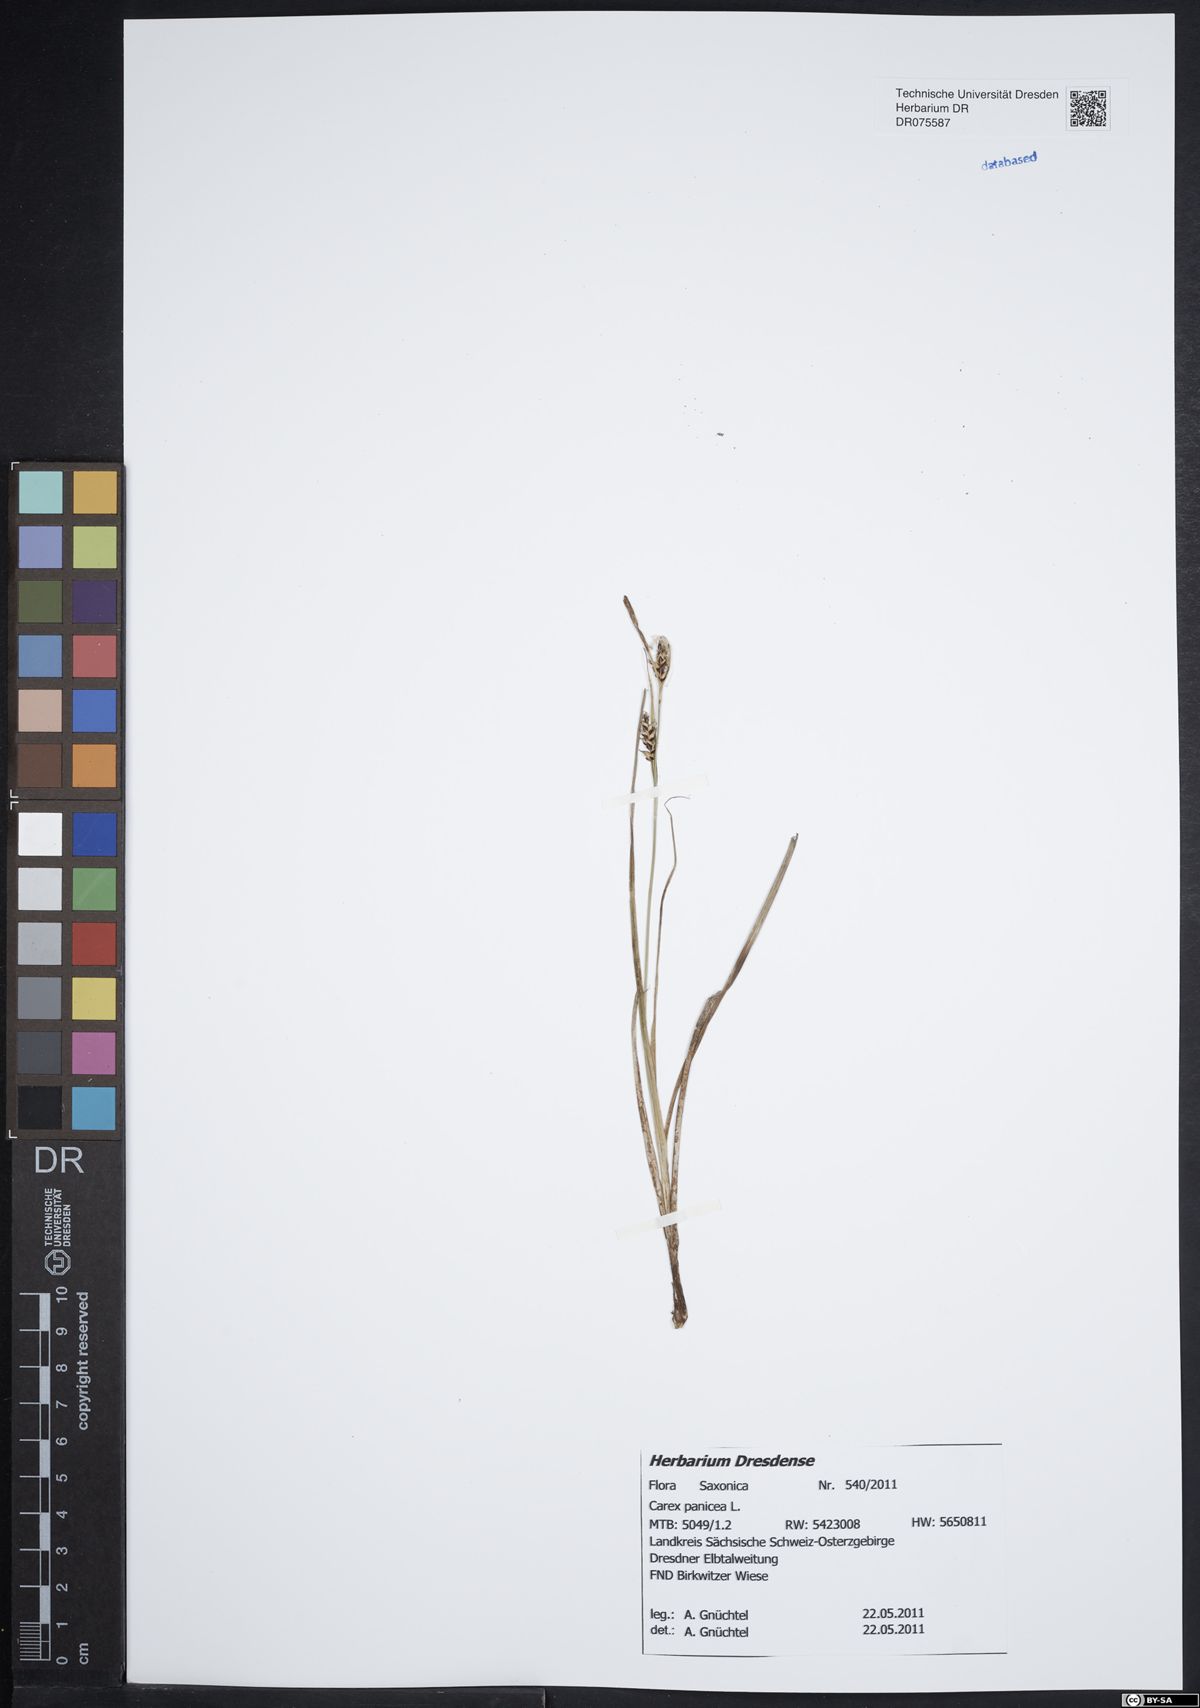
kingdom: Plantae
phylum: Tracheophyta
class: Liliopsida
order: Poales
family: Cyperaceae
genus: Carex
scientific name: Carex panicea
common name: Carnation sedge
